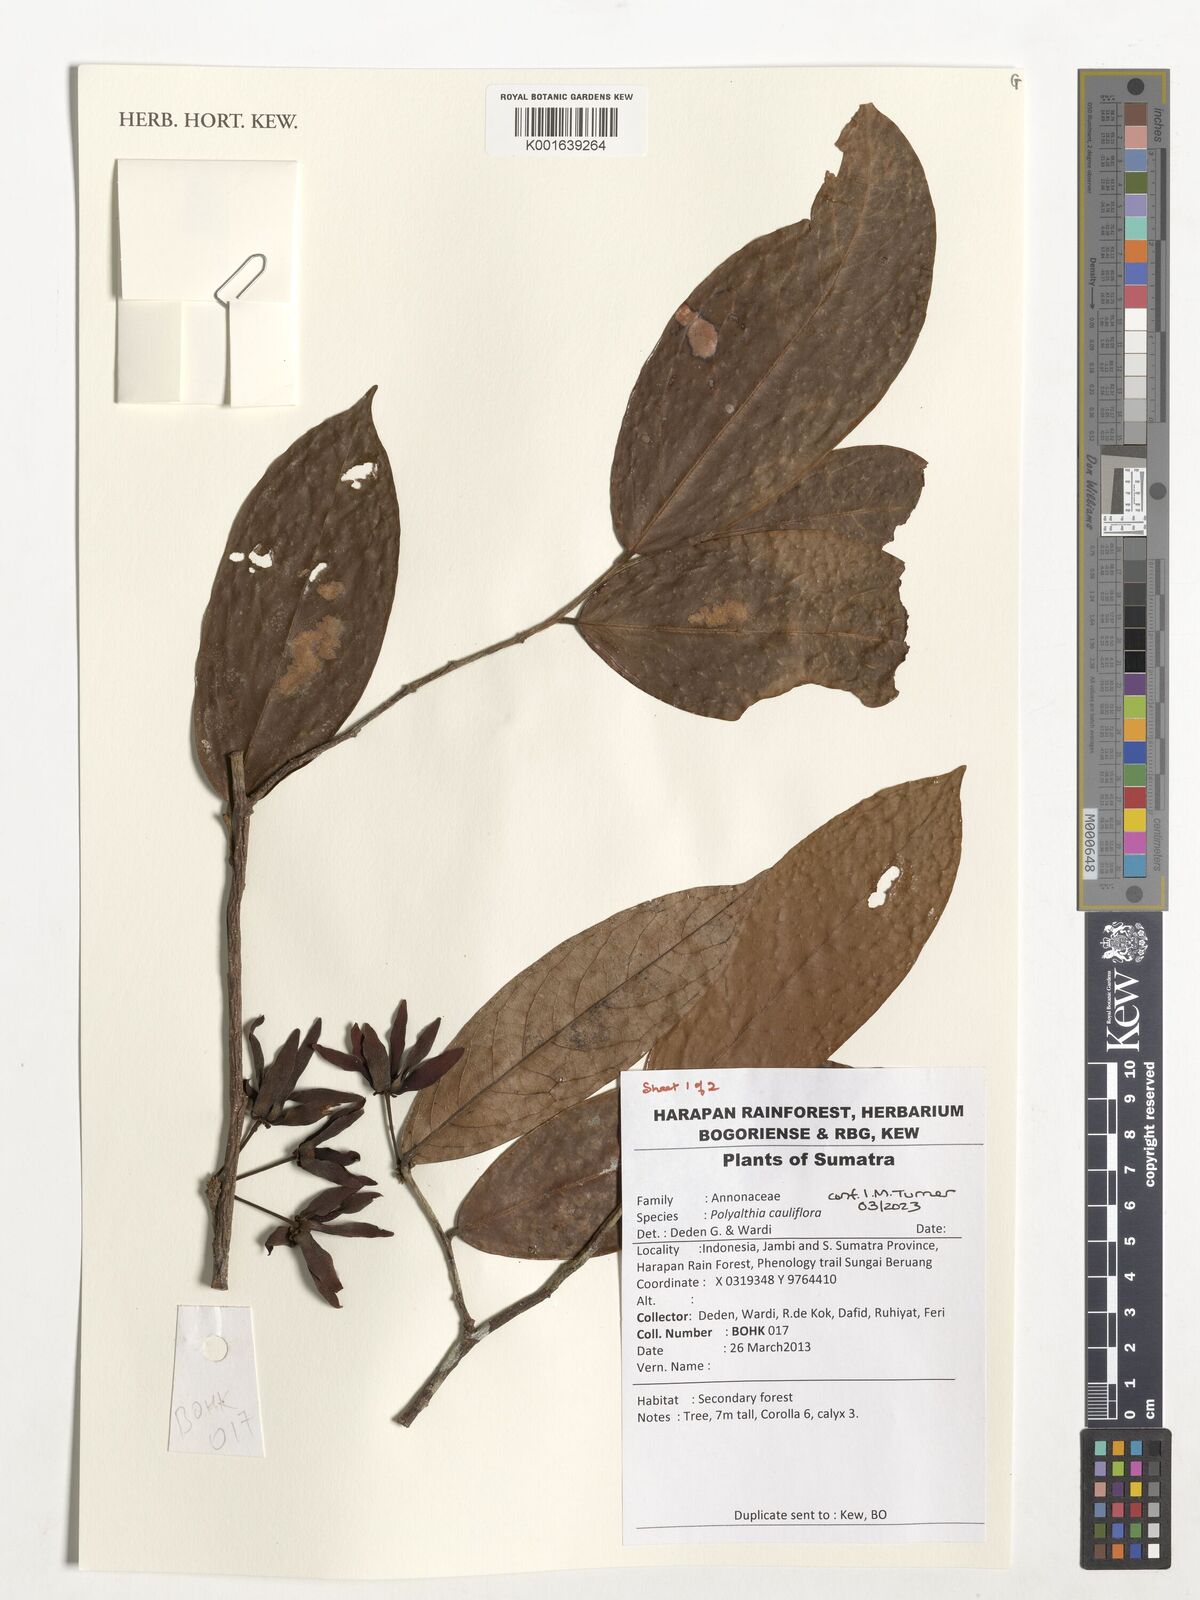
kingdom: Plantae
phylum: Tracheophyta
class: Magnoliopsida
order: Magnoliales
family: Annonaceae
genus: Polyalthia
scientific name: Polyalthia cauliflora
